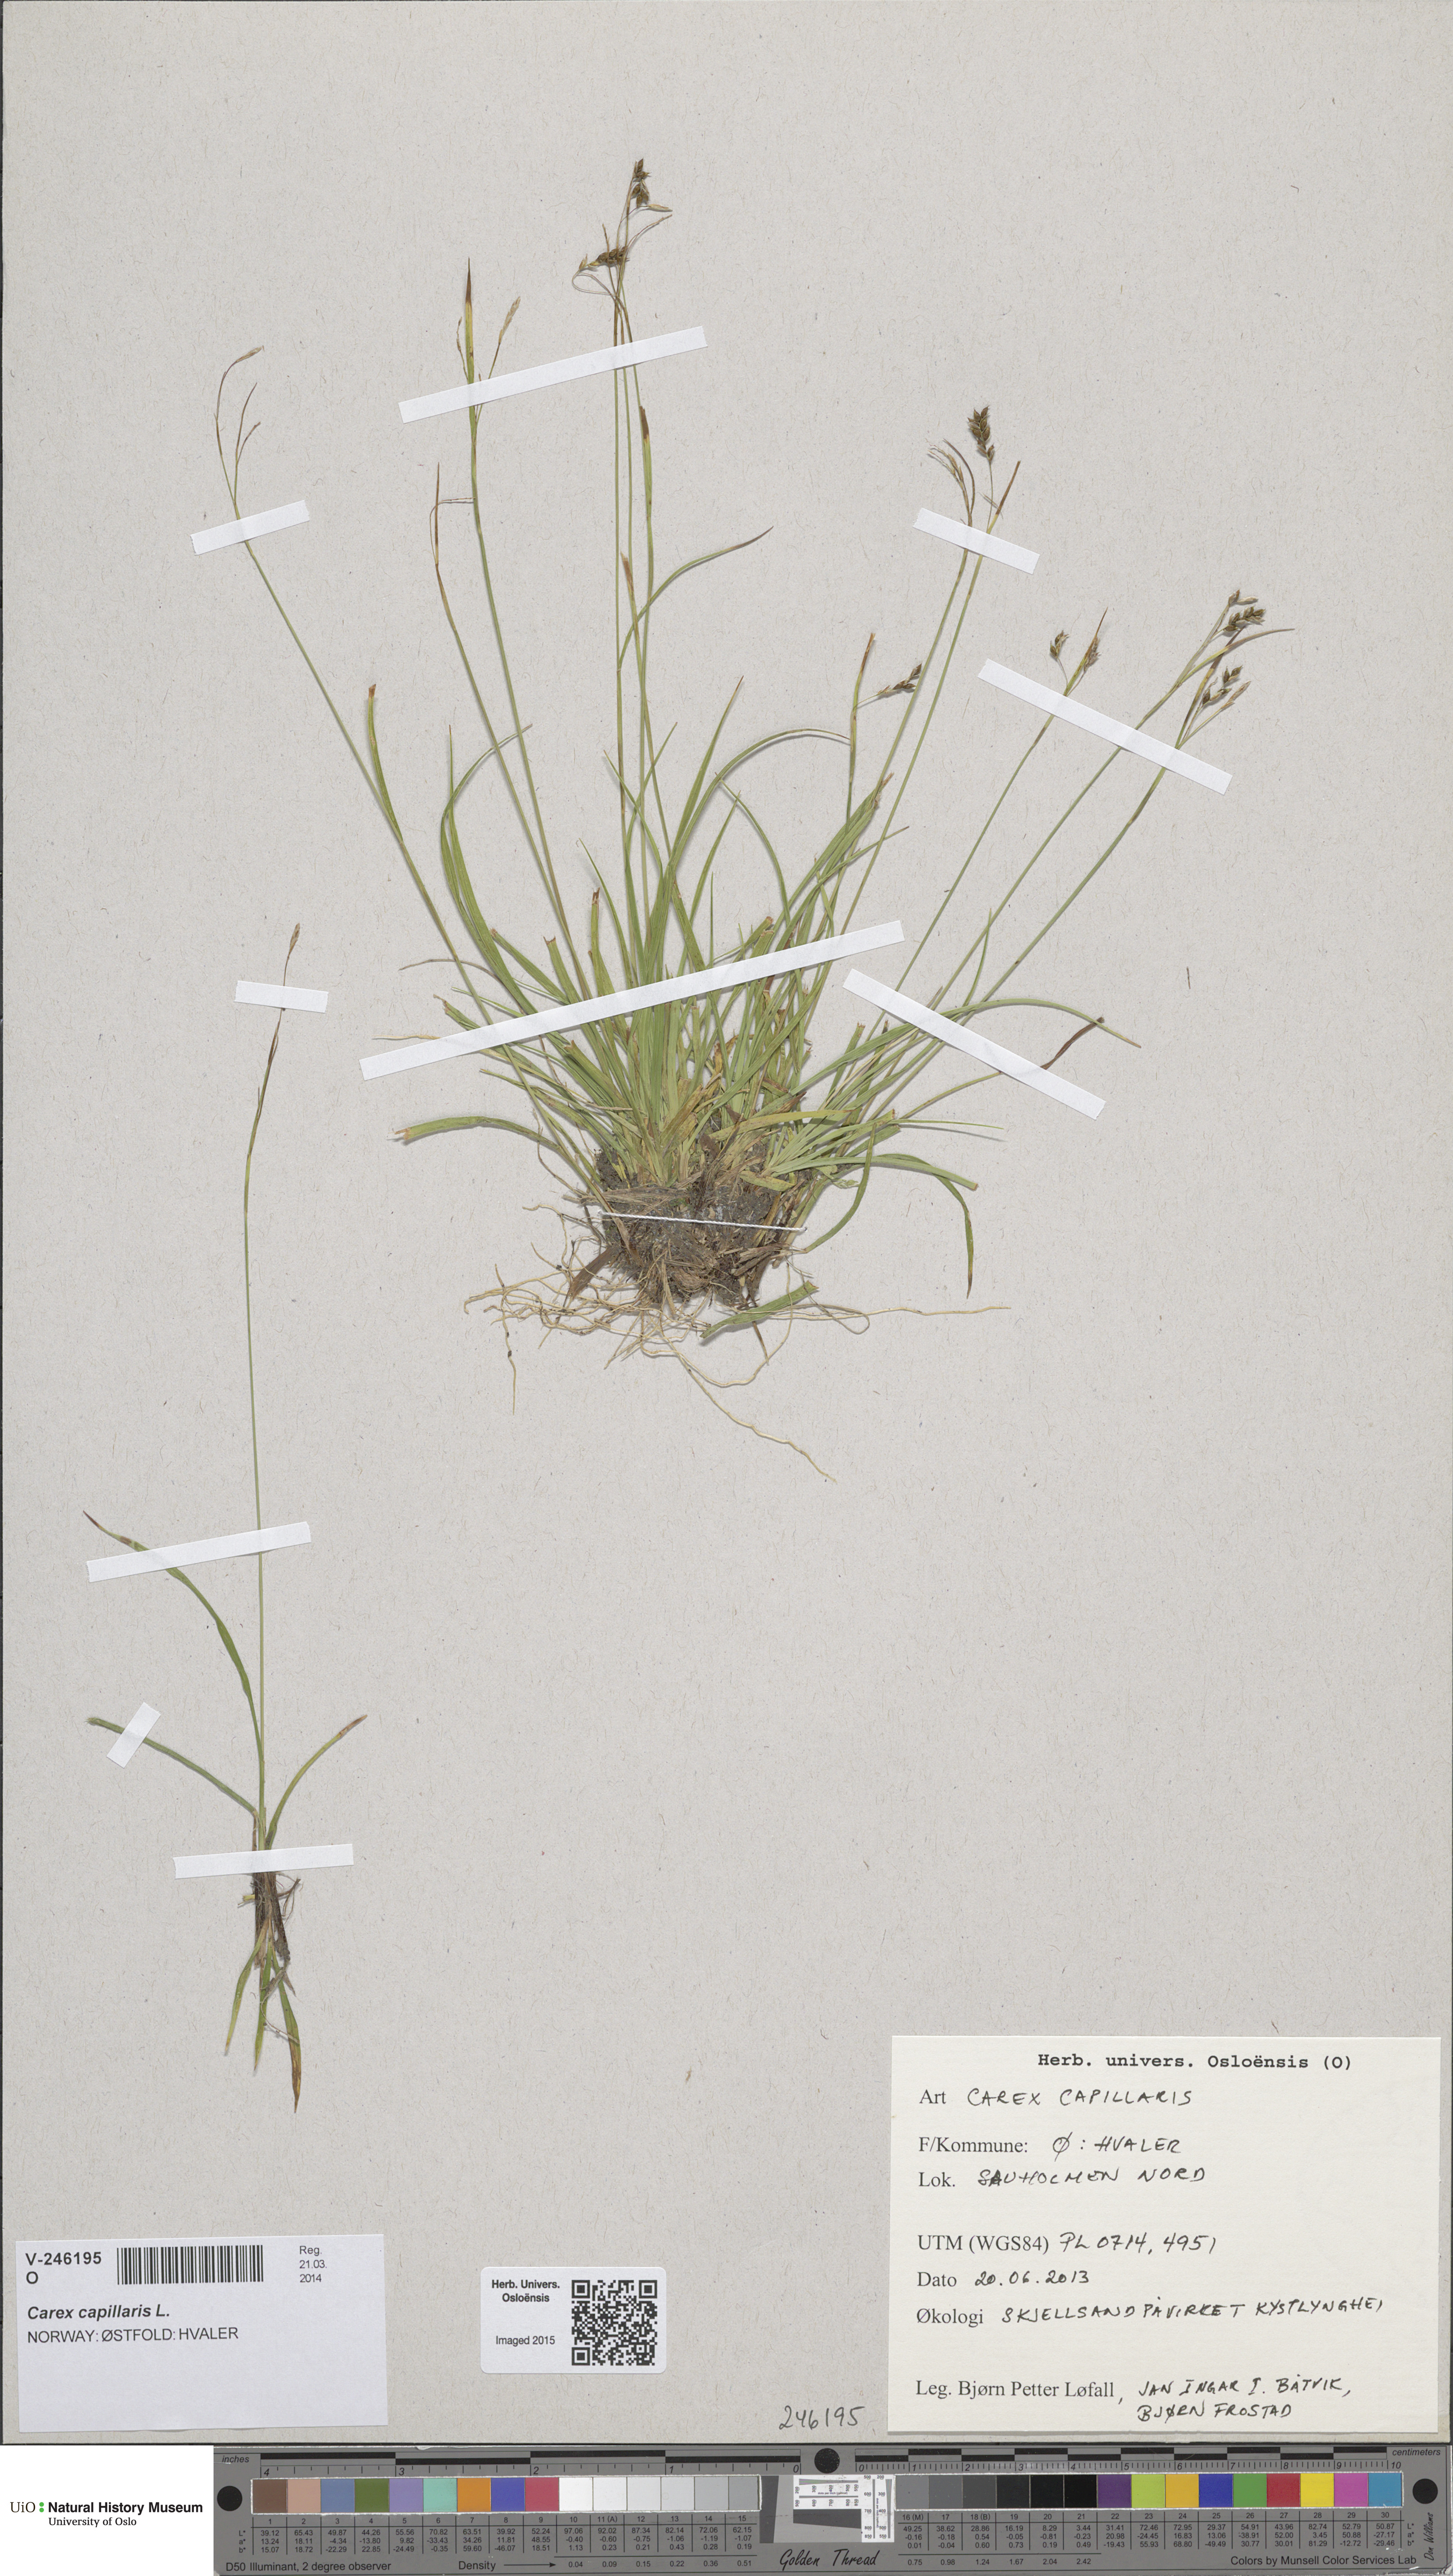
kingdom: Plantae
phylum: Tracheophyta
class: Liliopsida
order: Poales
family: Cyperaceae
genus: Carex
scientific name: Carex capillaris
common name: Hair sedge
